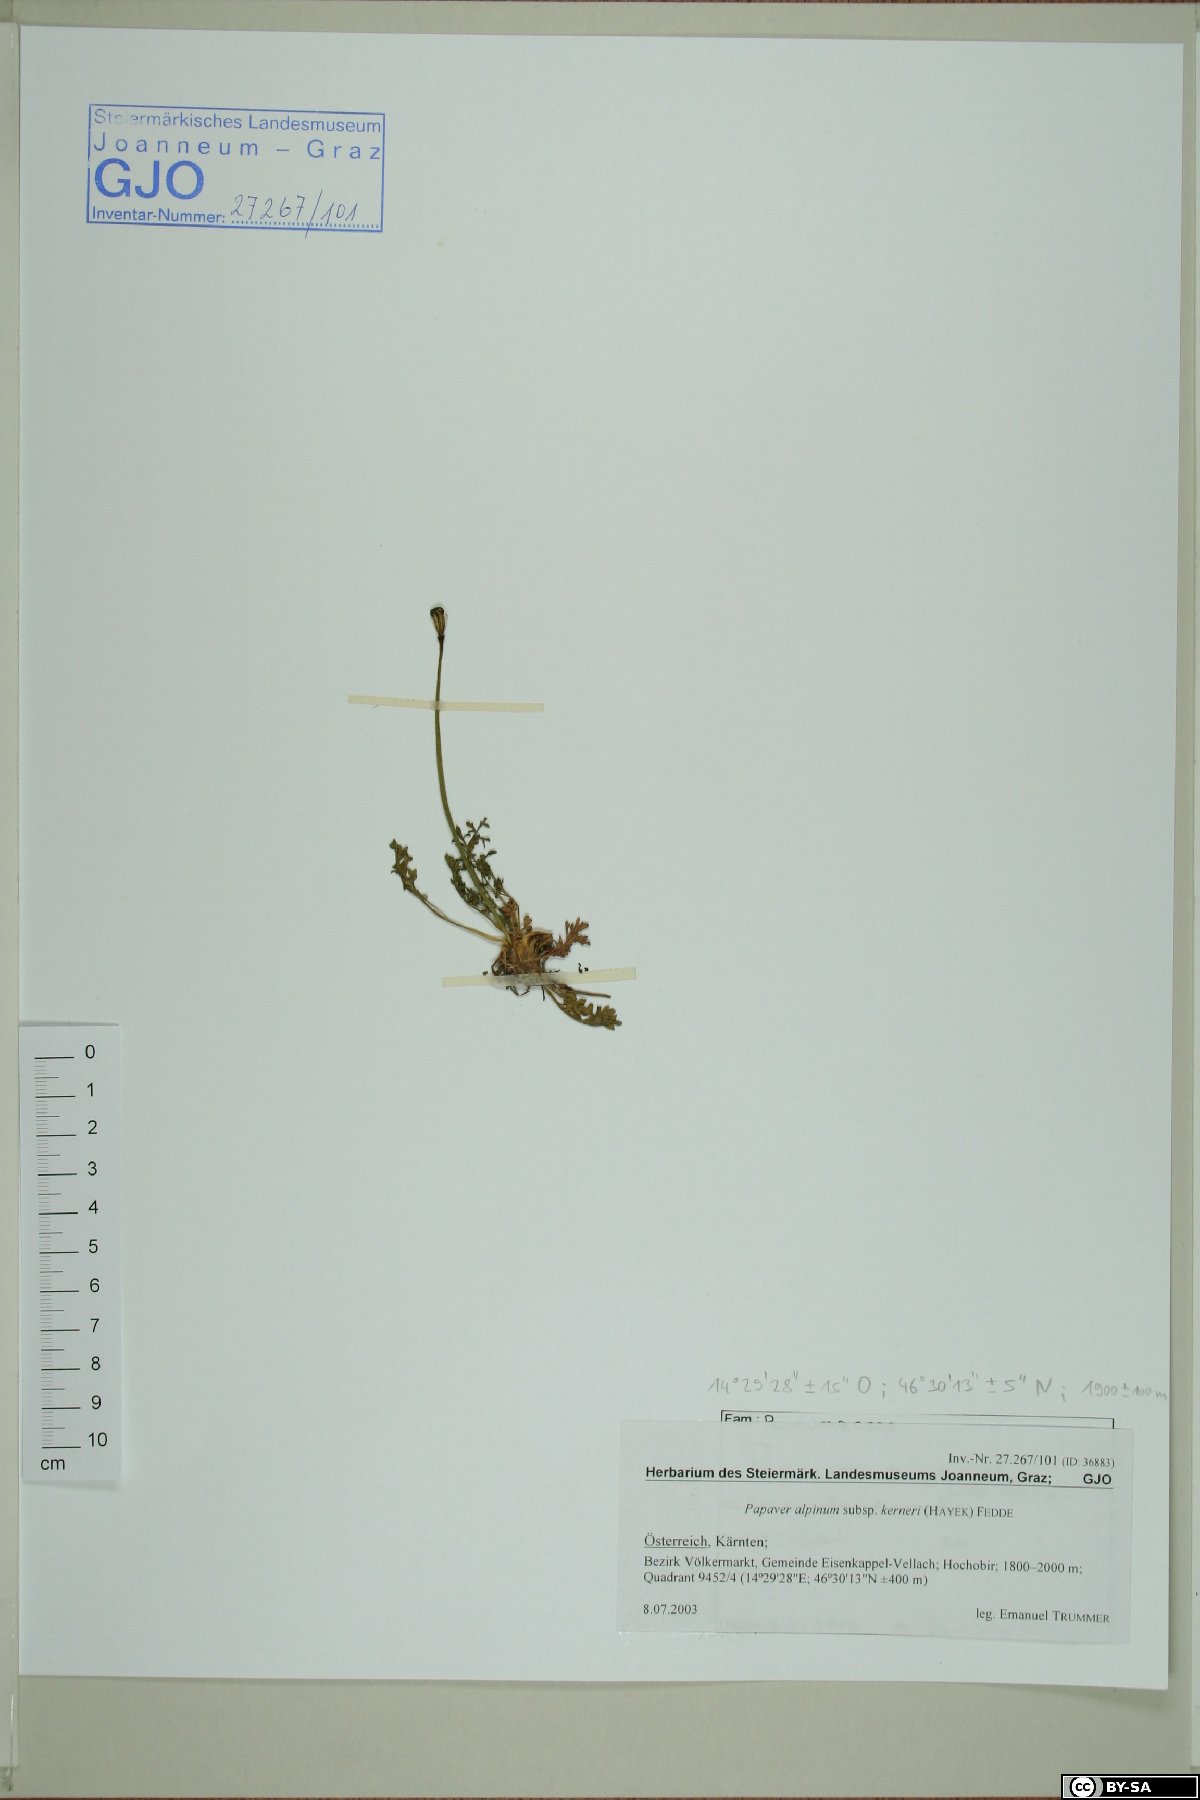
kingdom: Plantae
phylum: Tracheophyta
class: Magnoliopsida
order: Ranunculales
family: Papaveraceae
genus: Papaver
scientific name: Papaver alpinum
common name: Austrian poppy
